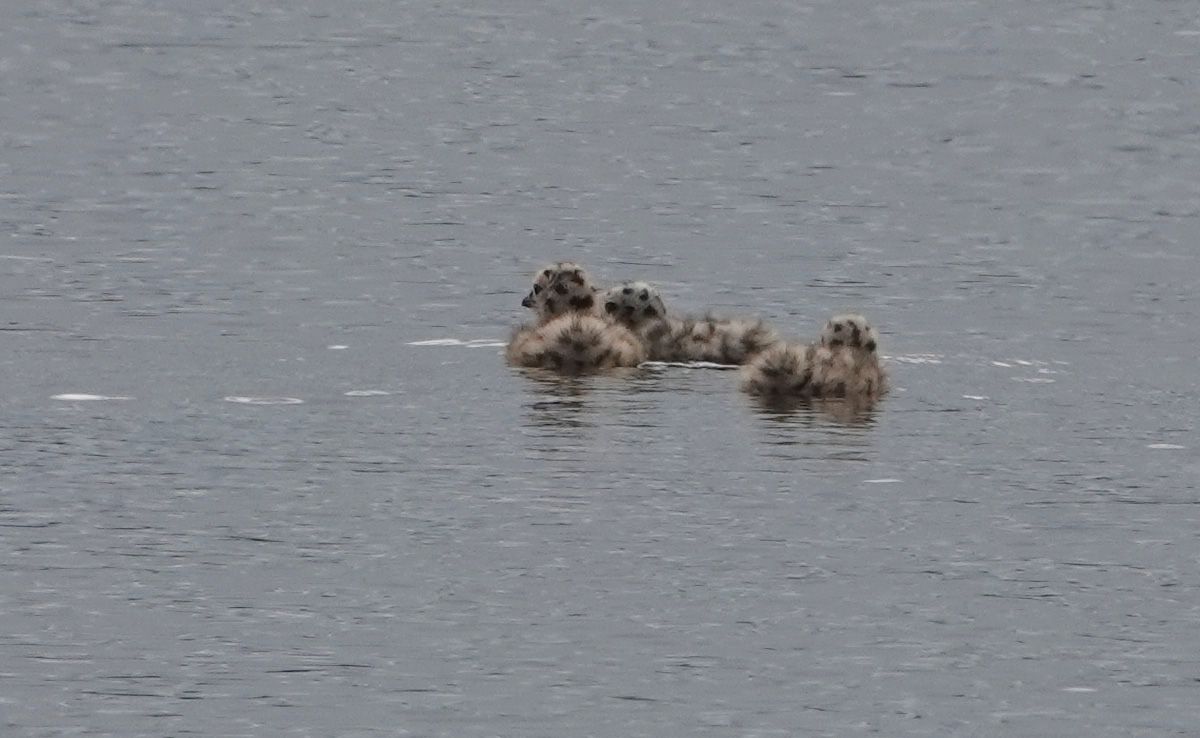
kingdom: Animalia
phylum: Chordata
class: Aves
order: Charadriiformes
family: Laridae
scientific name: Laridae
